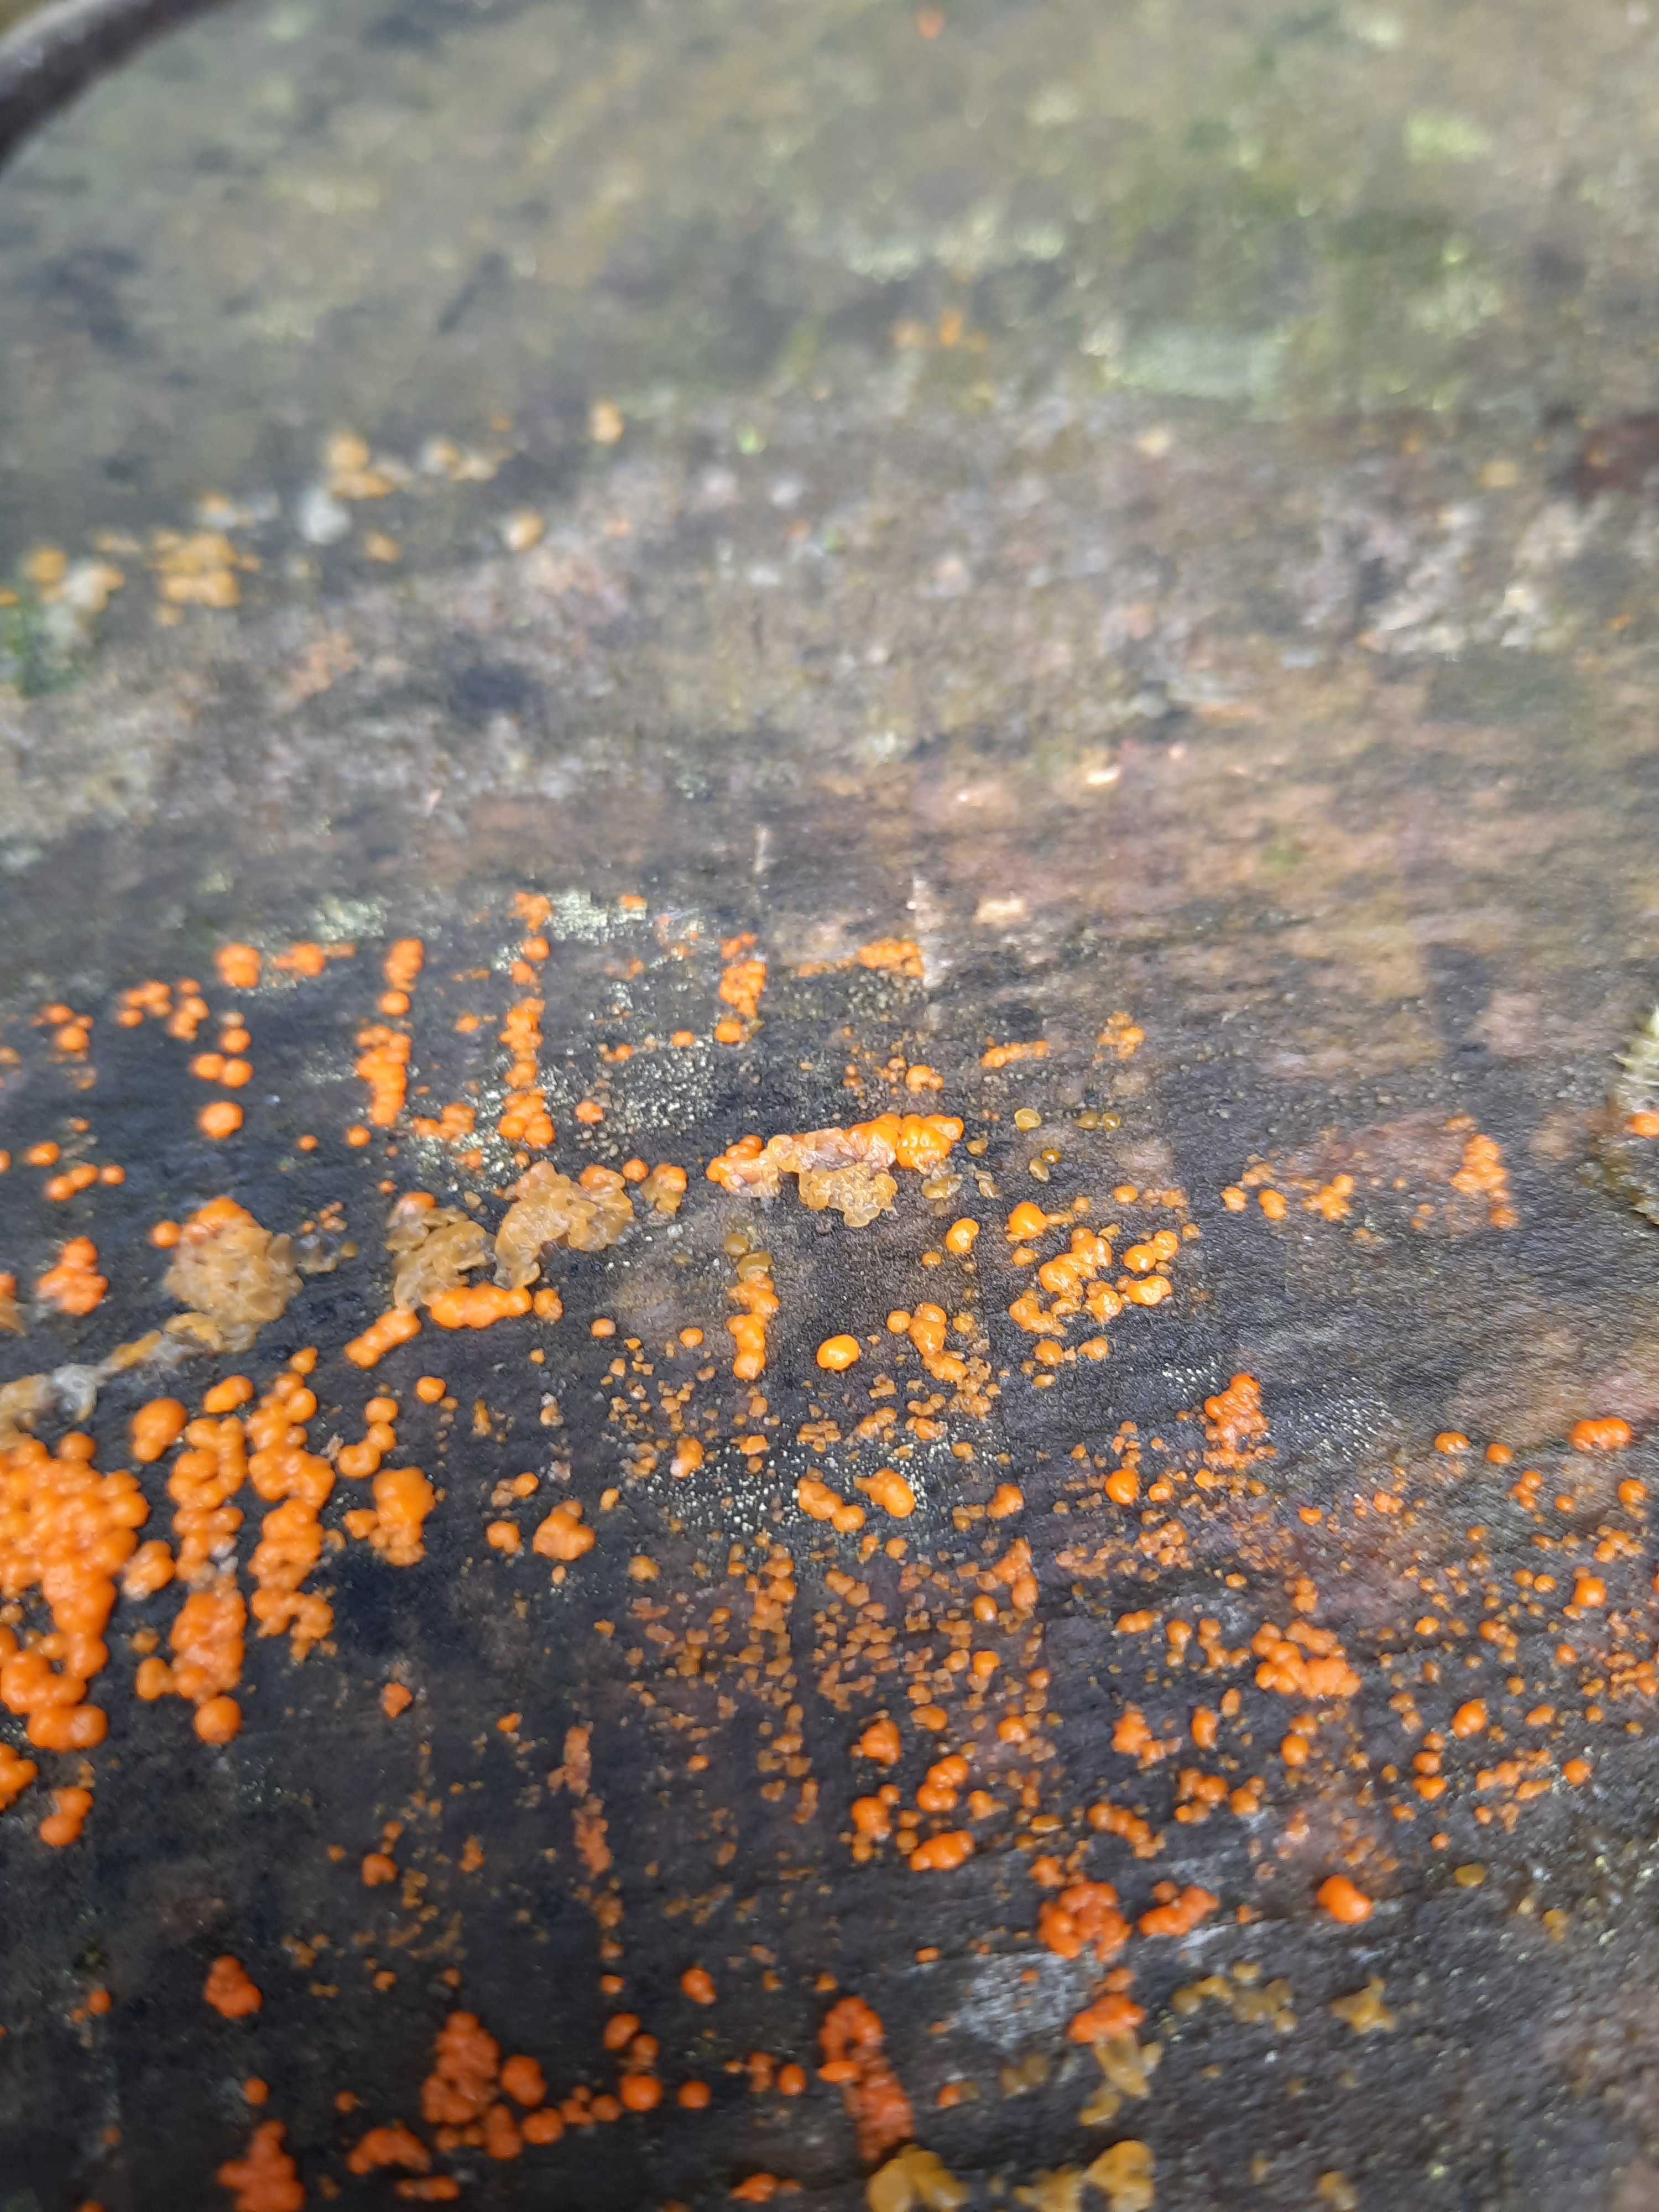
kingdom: Fungi
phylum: Basidiomycota
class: Dacrymycetes
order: Dacrymycetales
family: Dacrymycetaceae
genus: Dacrymyces
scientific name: Dacrymyces stillatus
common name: almindelig tåresvamp
